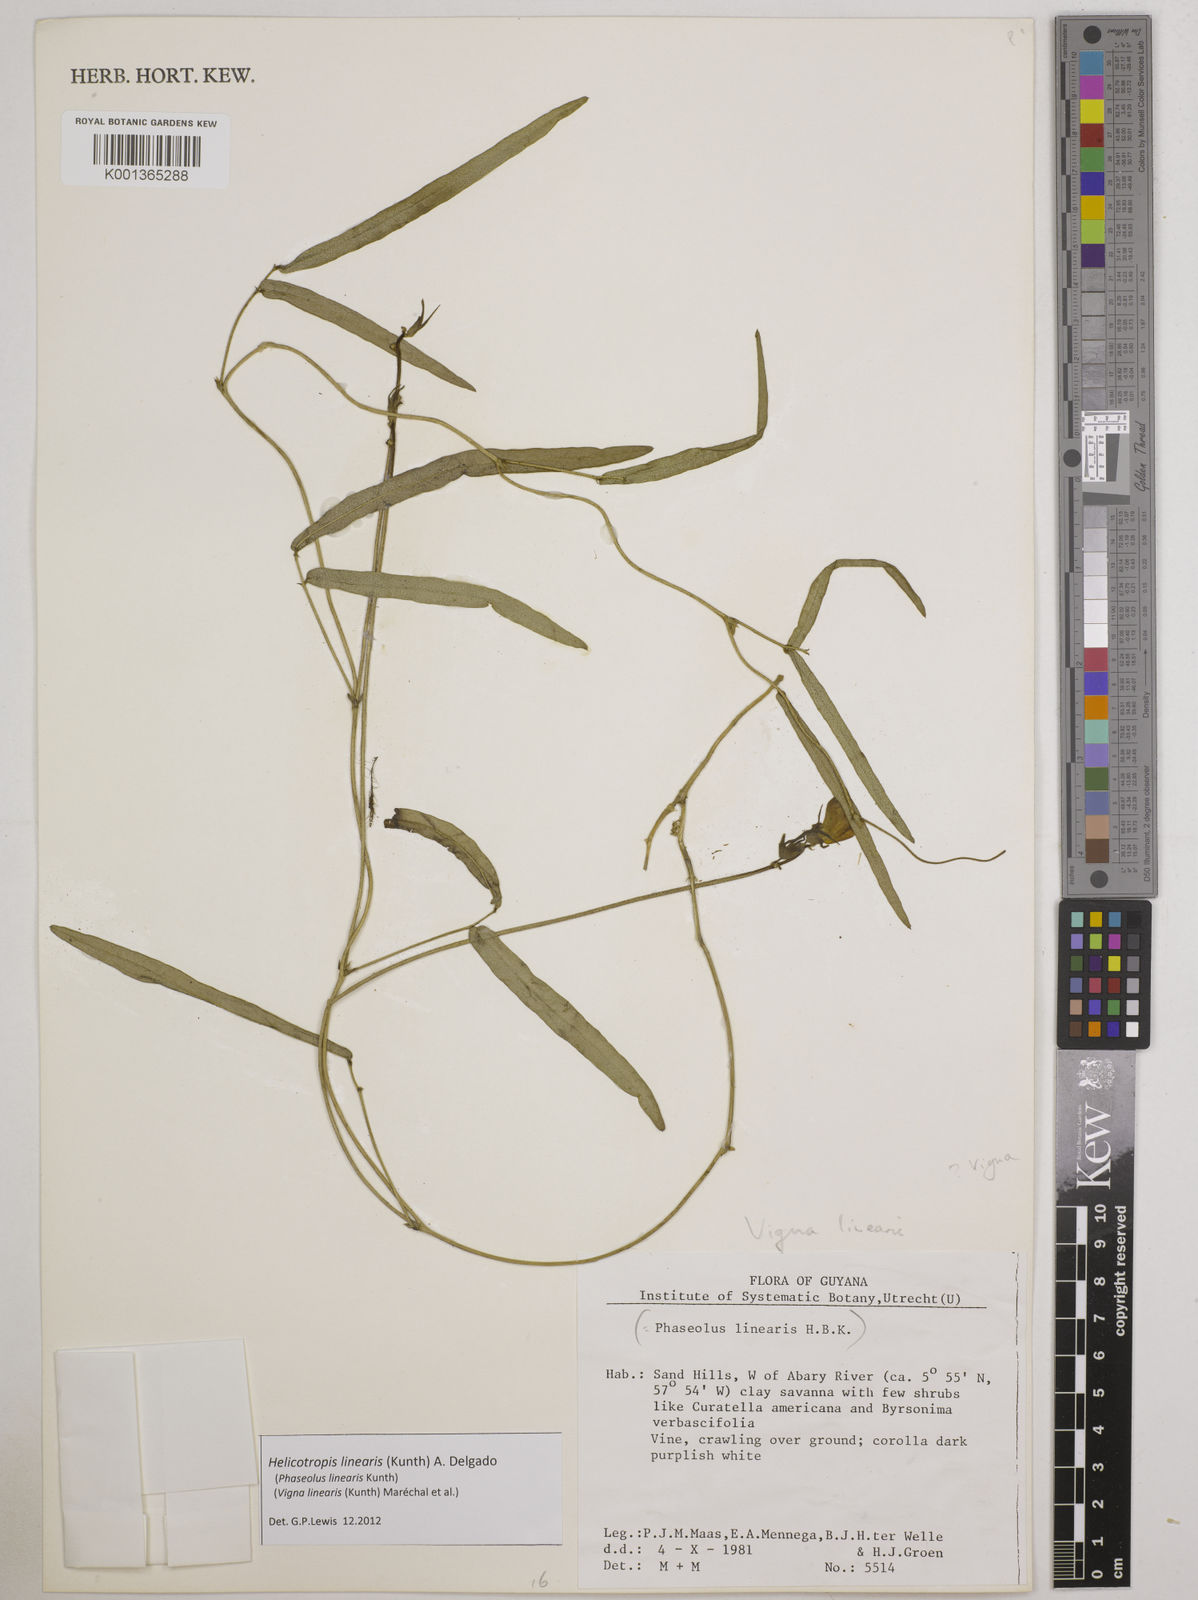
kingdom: Plantae
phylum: Tracheophyta
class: Magnoliopsida
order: Fabales
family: Fabaceae
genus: Helicotropis
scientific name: Helicotropis linearis
